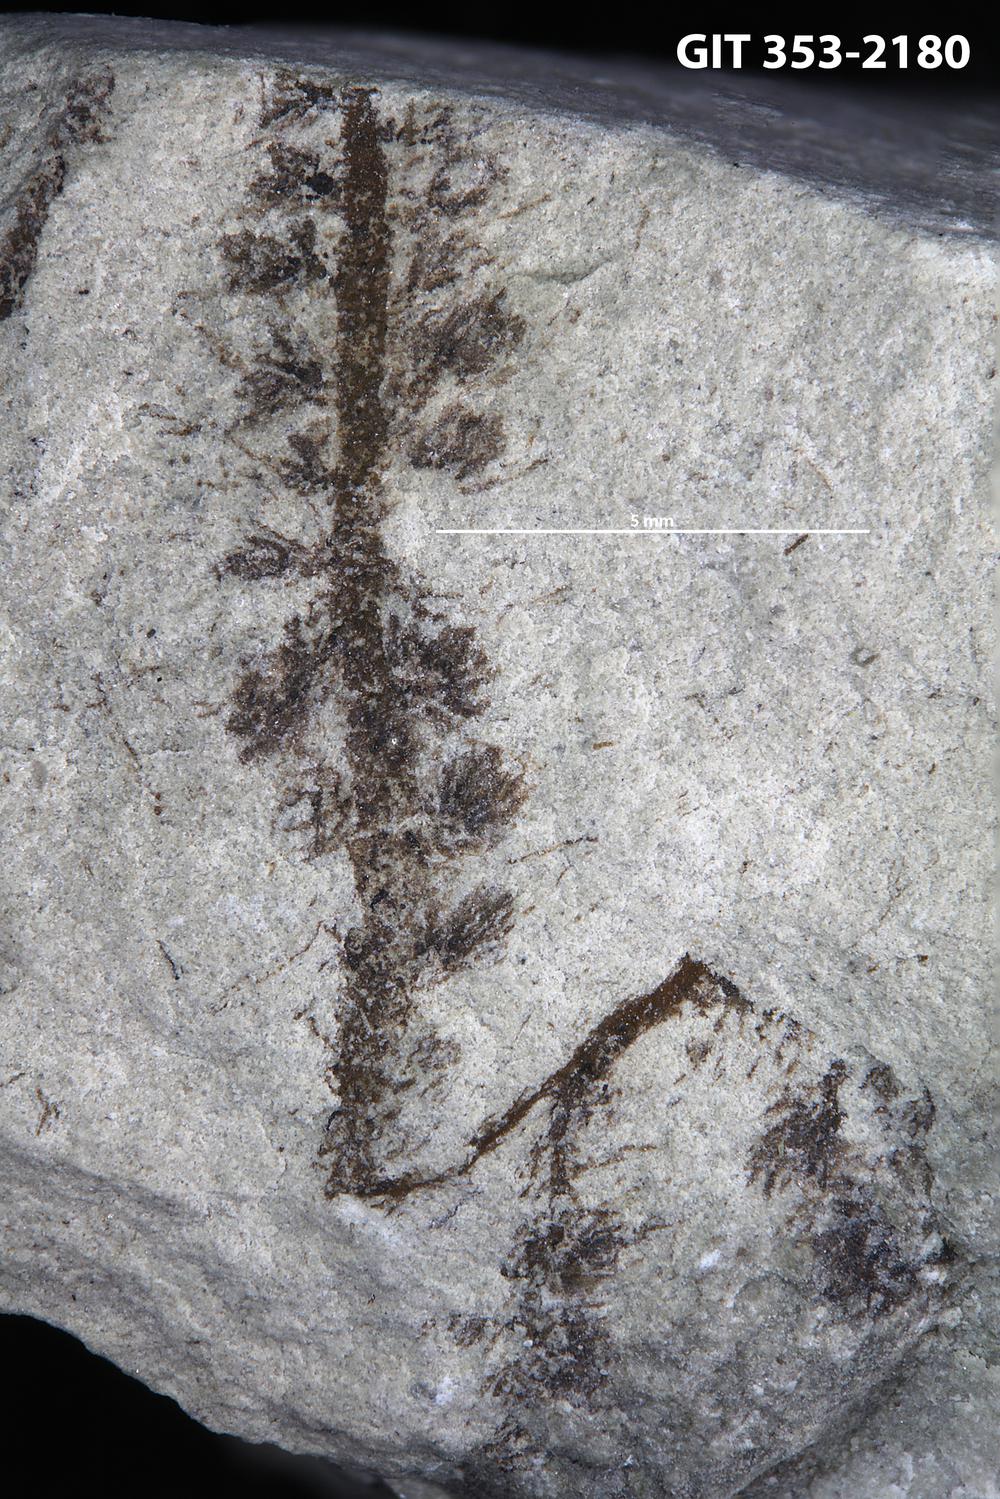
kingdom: Plantae
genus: Leveilleites
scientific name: Leveilleites hartnageli
